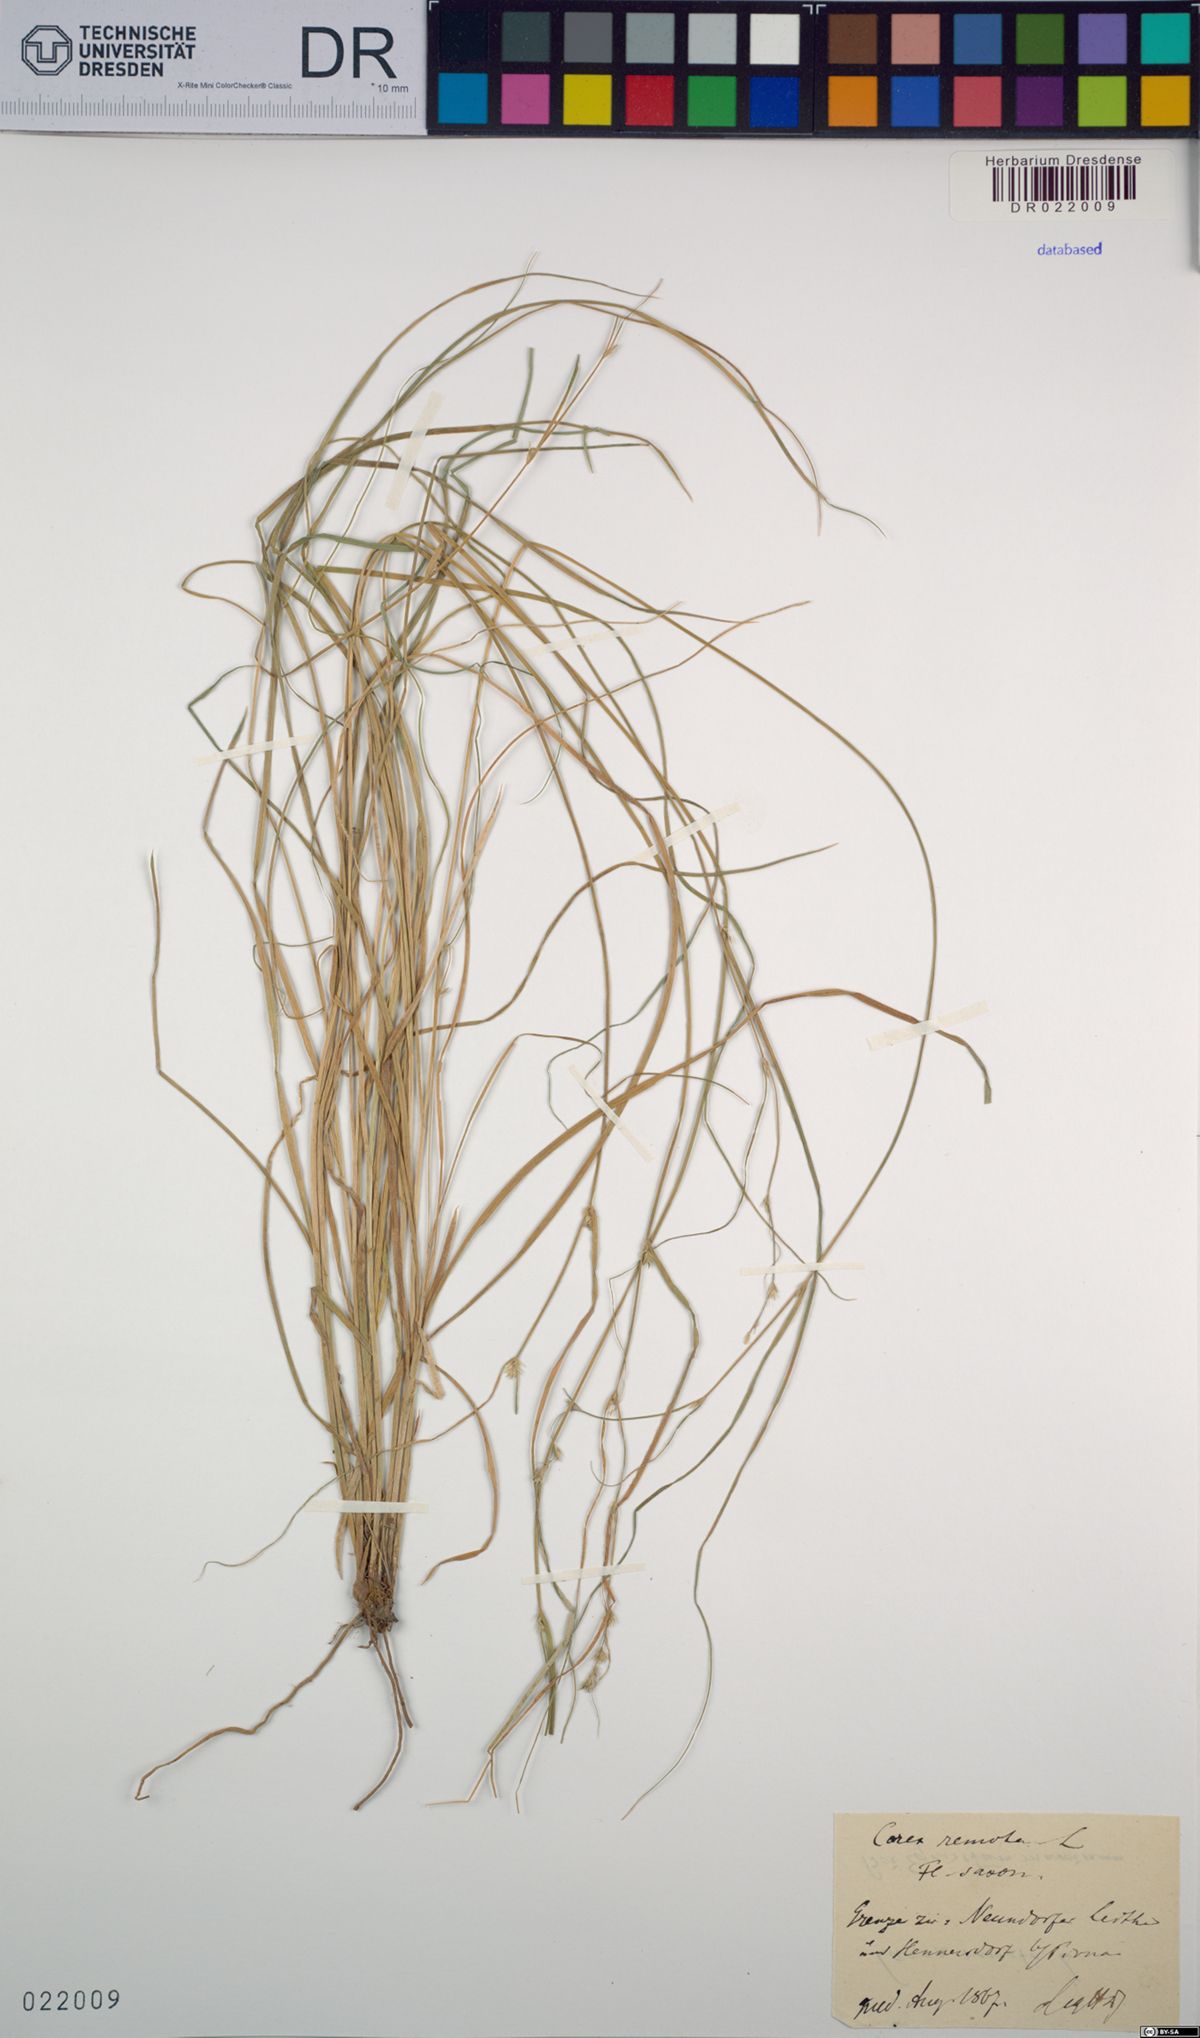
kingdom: Plantae
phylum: Tracheophyta
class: Liliopsida
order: Poales
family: Cyperaceae
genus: Carex
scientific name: Carex remota
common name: Remote sedge
